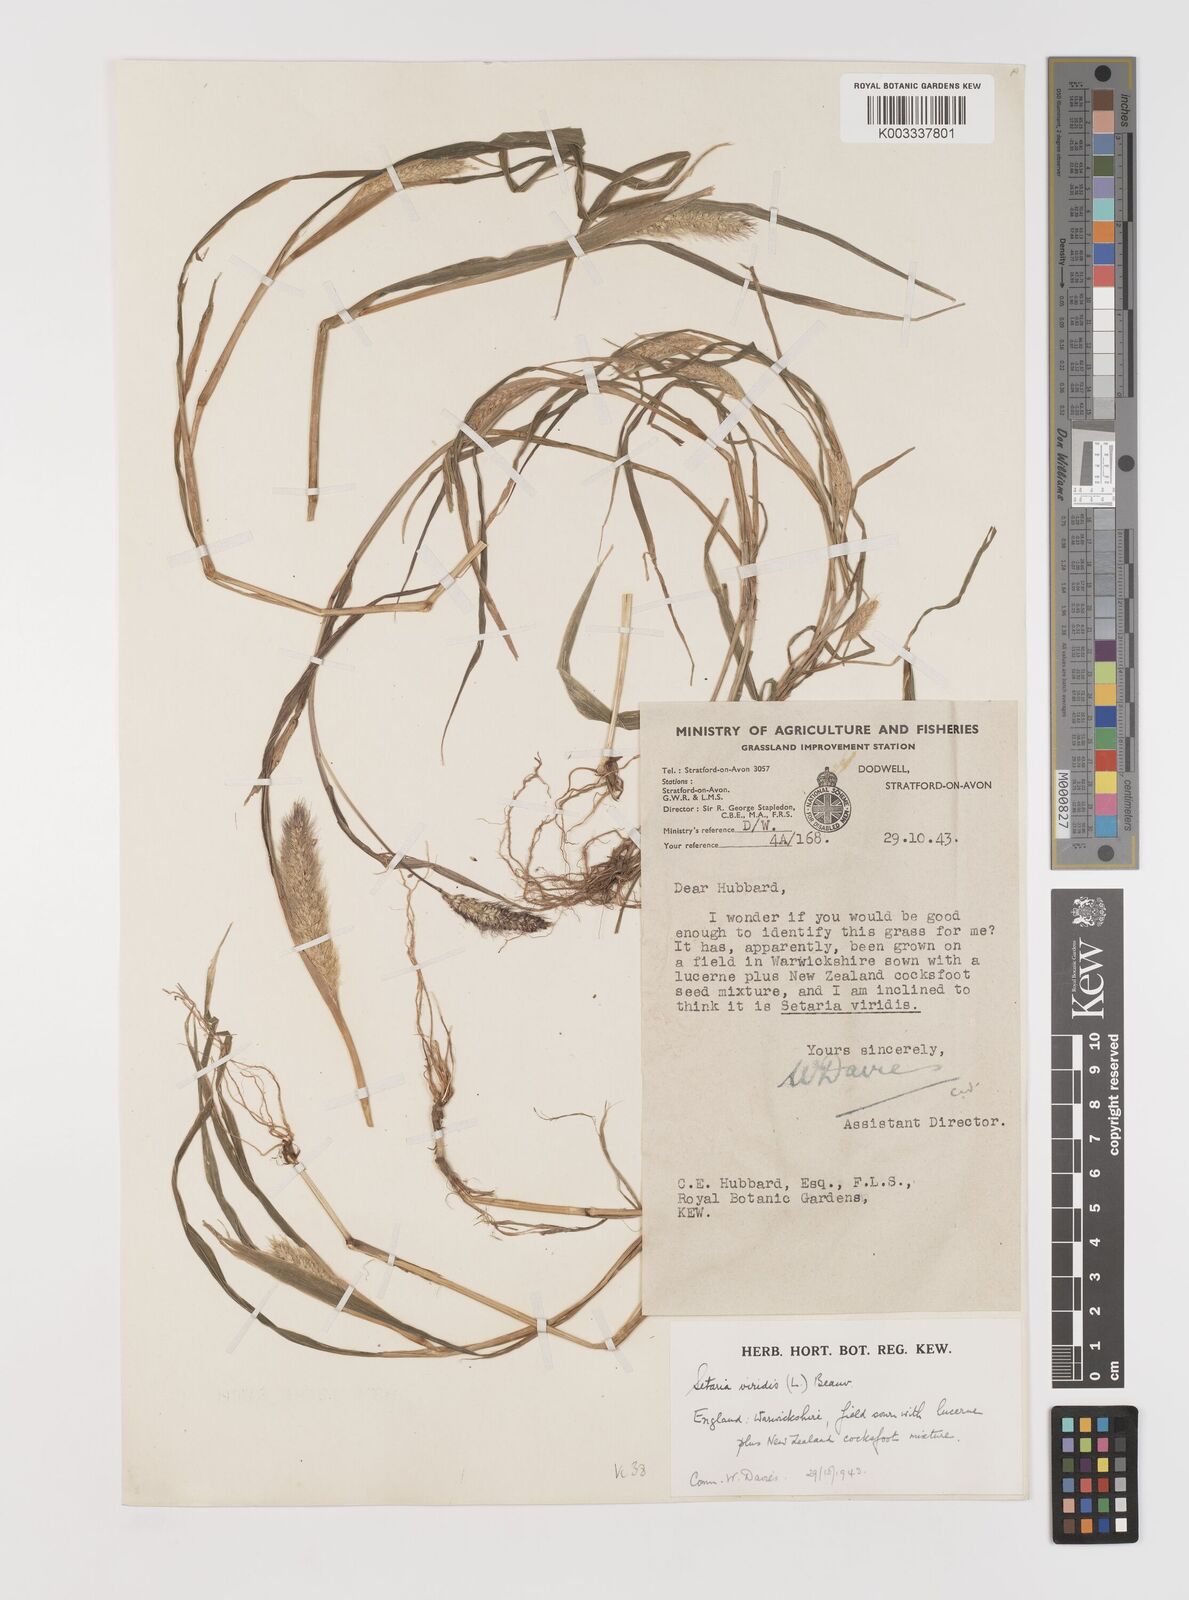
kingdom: Plantae
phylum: Tracheophyta
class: Liliopsida
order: Poales
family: Poaceae
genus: Setaria
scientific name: Setaria viridis
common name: Green bristlegrass
